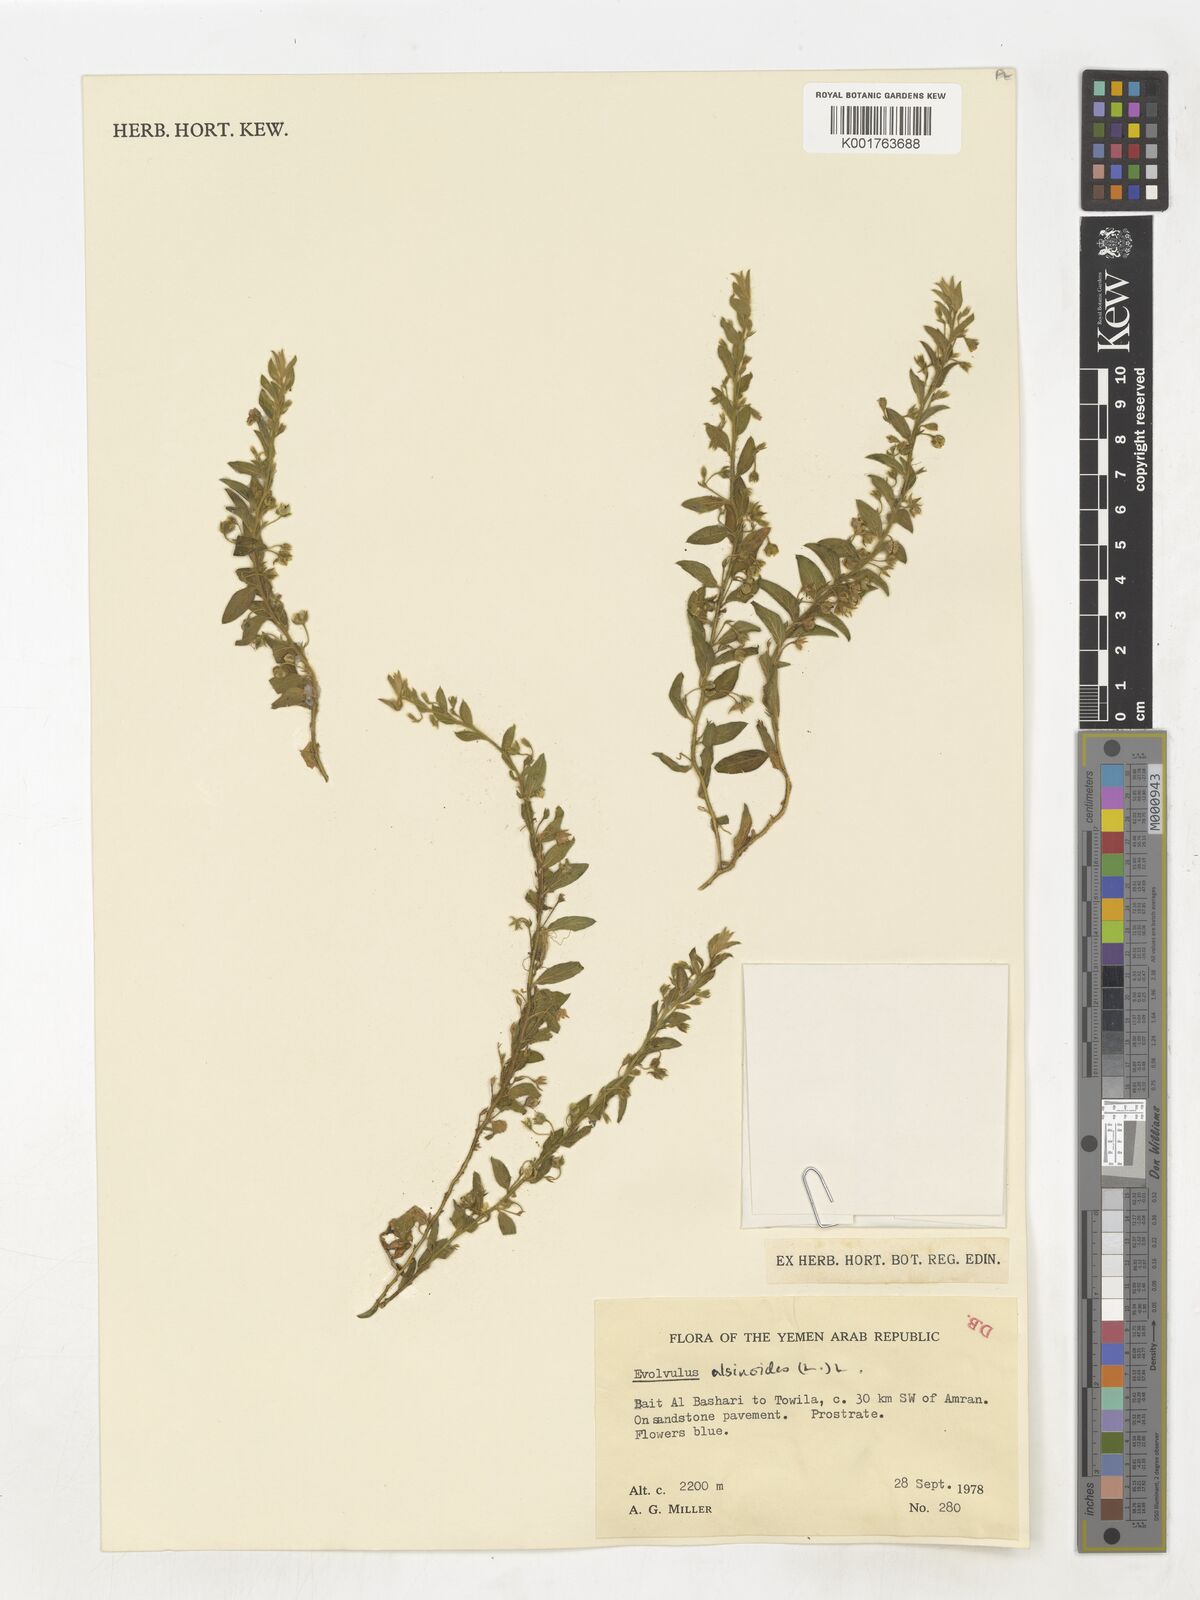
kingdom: Plantae
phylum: Tracheophyta
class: Magnoliopsida
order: Solanales
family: Convolvulaceae
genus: Evolvulus
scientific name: Evolvulus alsinoides
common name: Slender dwarf morning-glory
